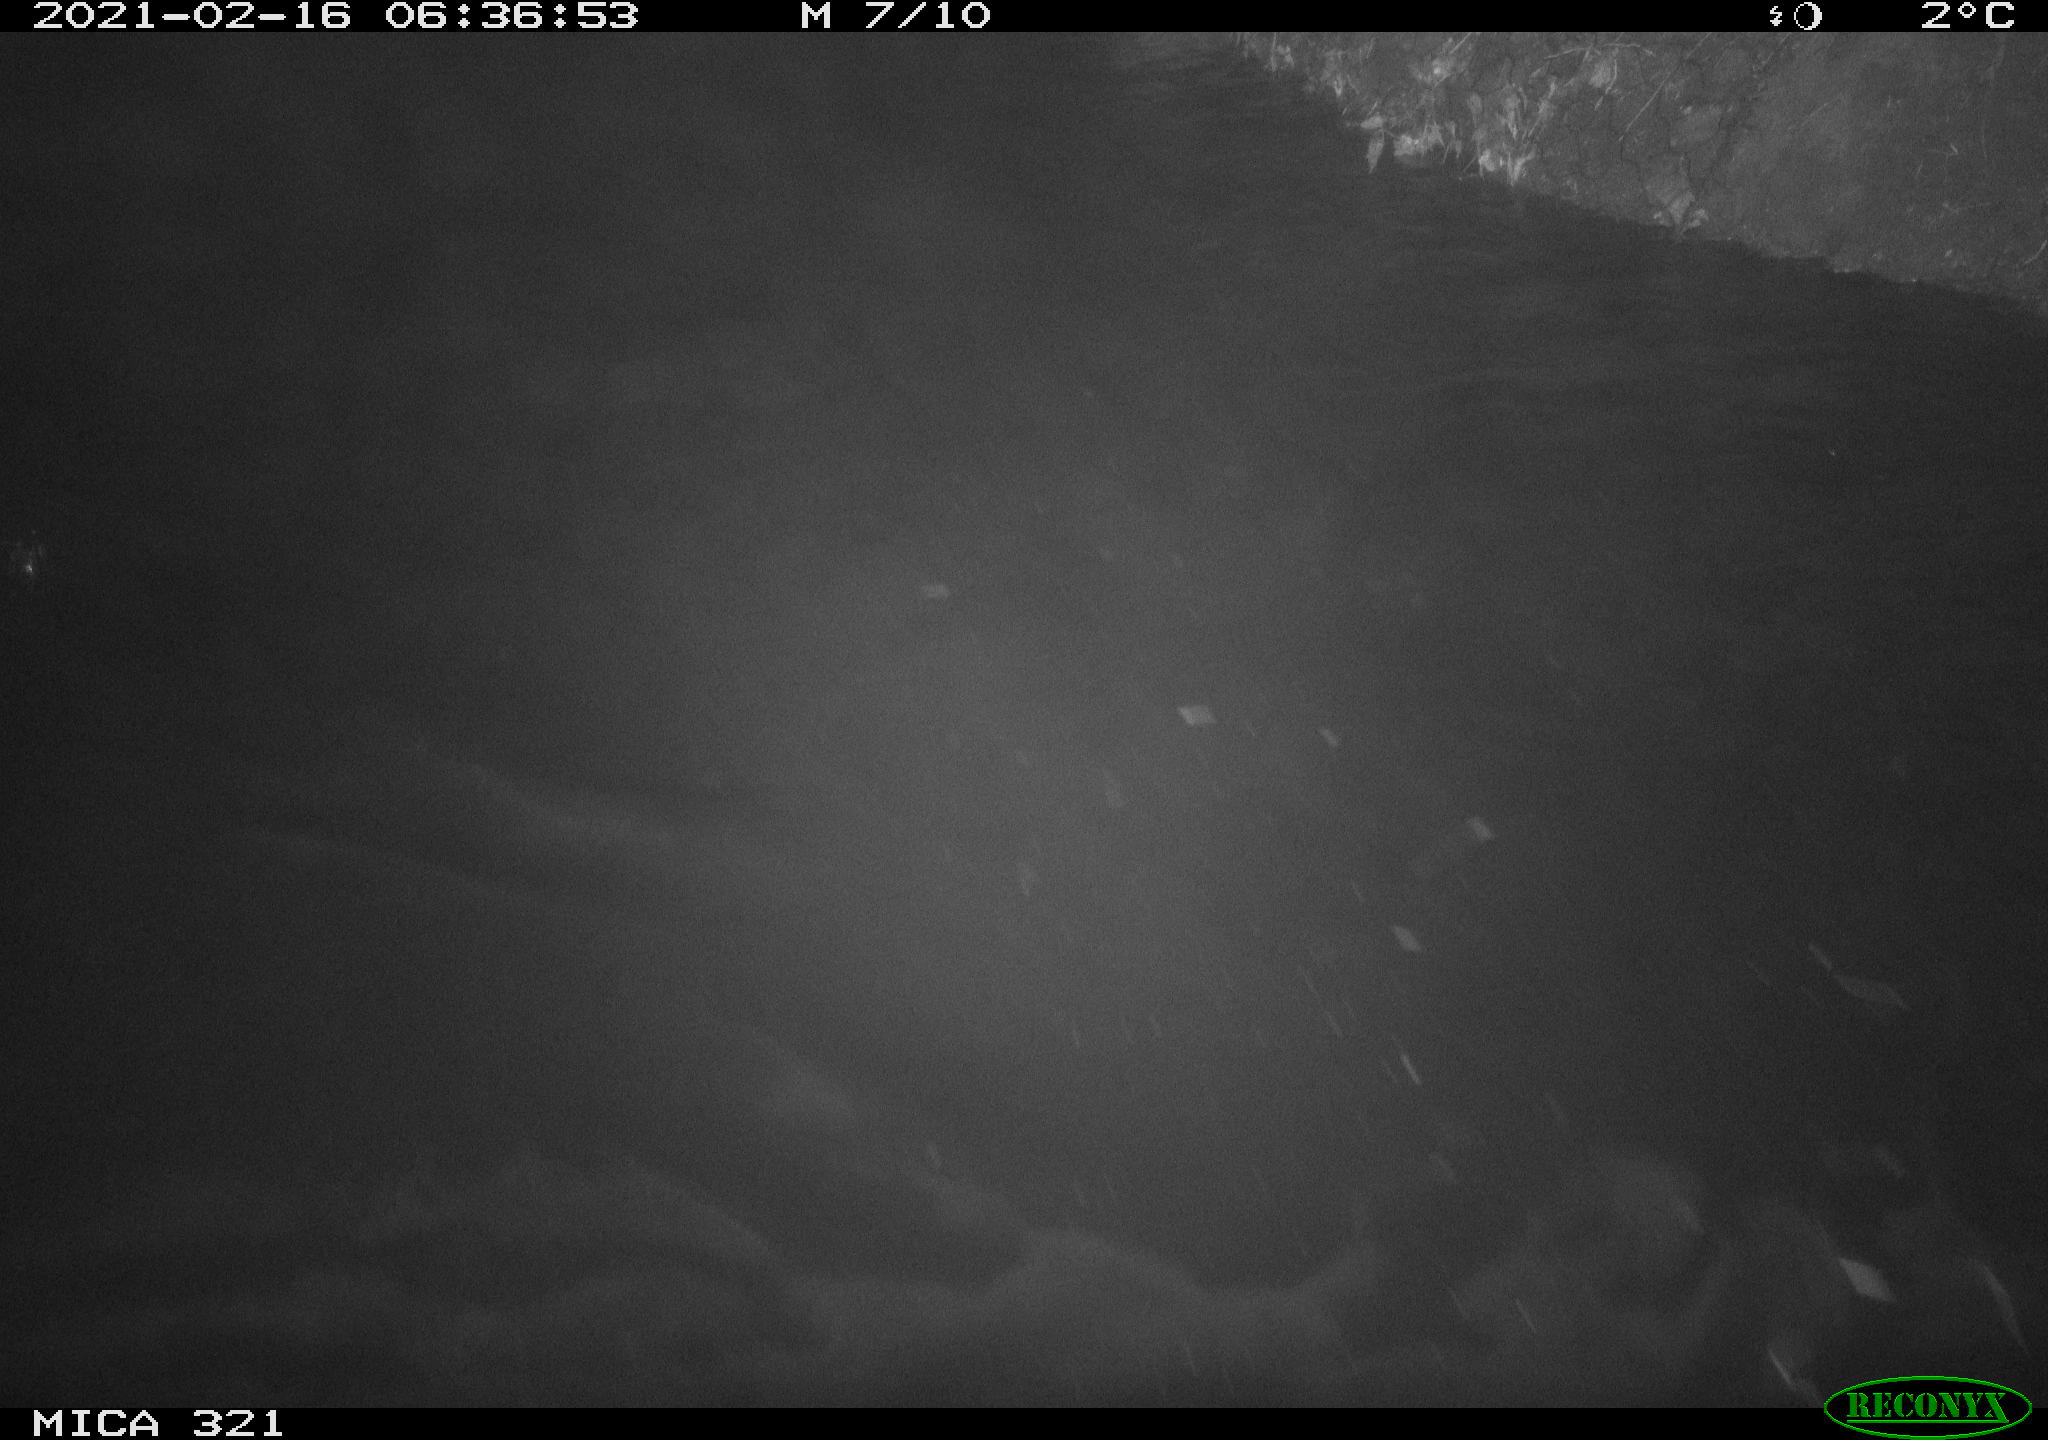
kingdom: Animalia
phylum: Chordata
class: Aves
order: Anseriformes
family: Anatidae
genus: Anas
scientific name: Anas platyrhynchos
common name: Mallard
